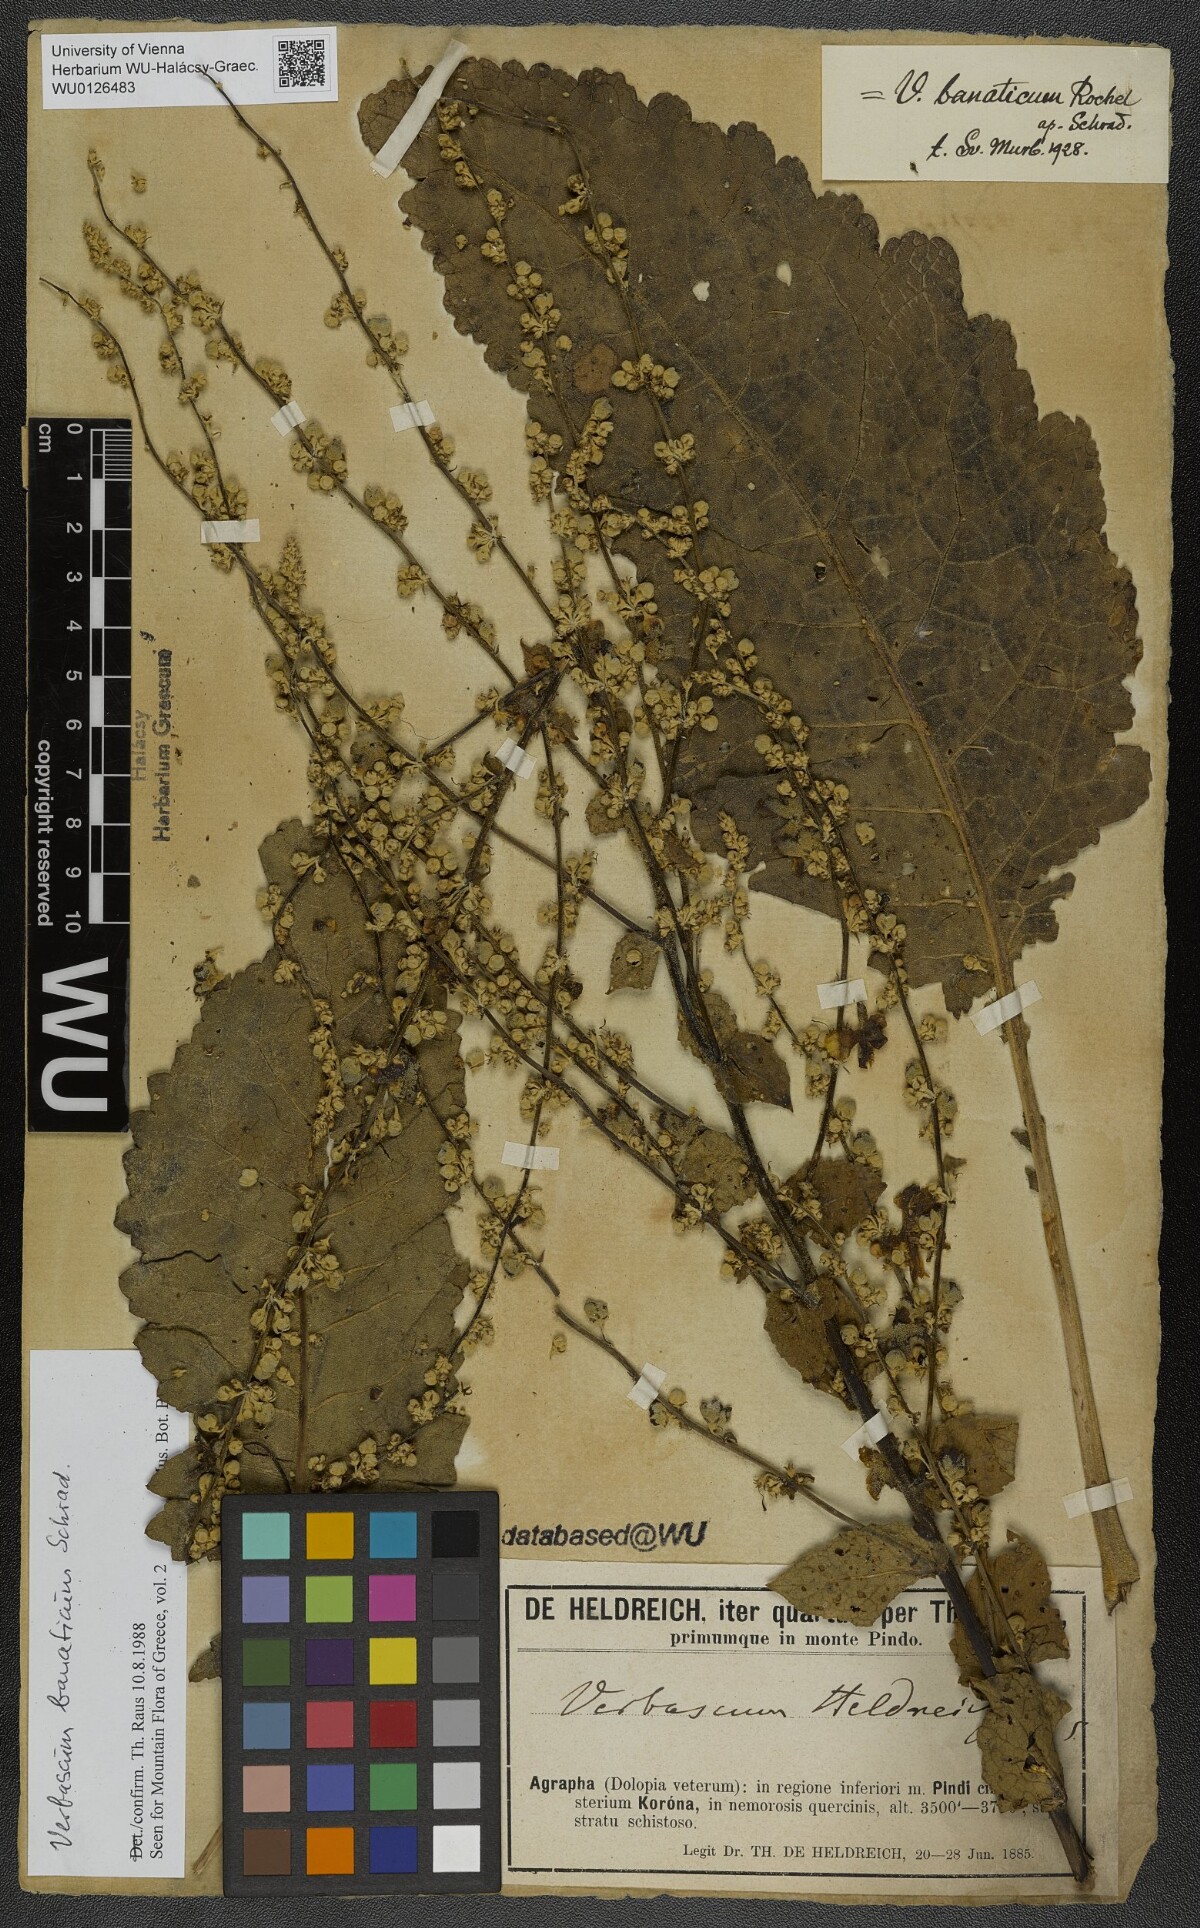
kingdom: Plantae
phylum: Tracheophyta
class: Magnoliopsida
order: Lamiales
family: Scrophulariaceae
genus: Verbascum
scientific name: Verbascum banaticum
